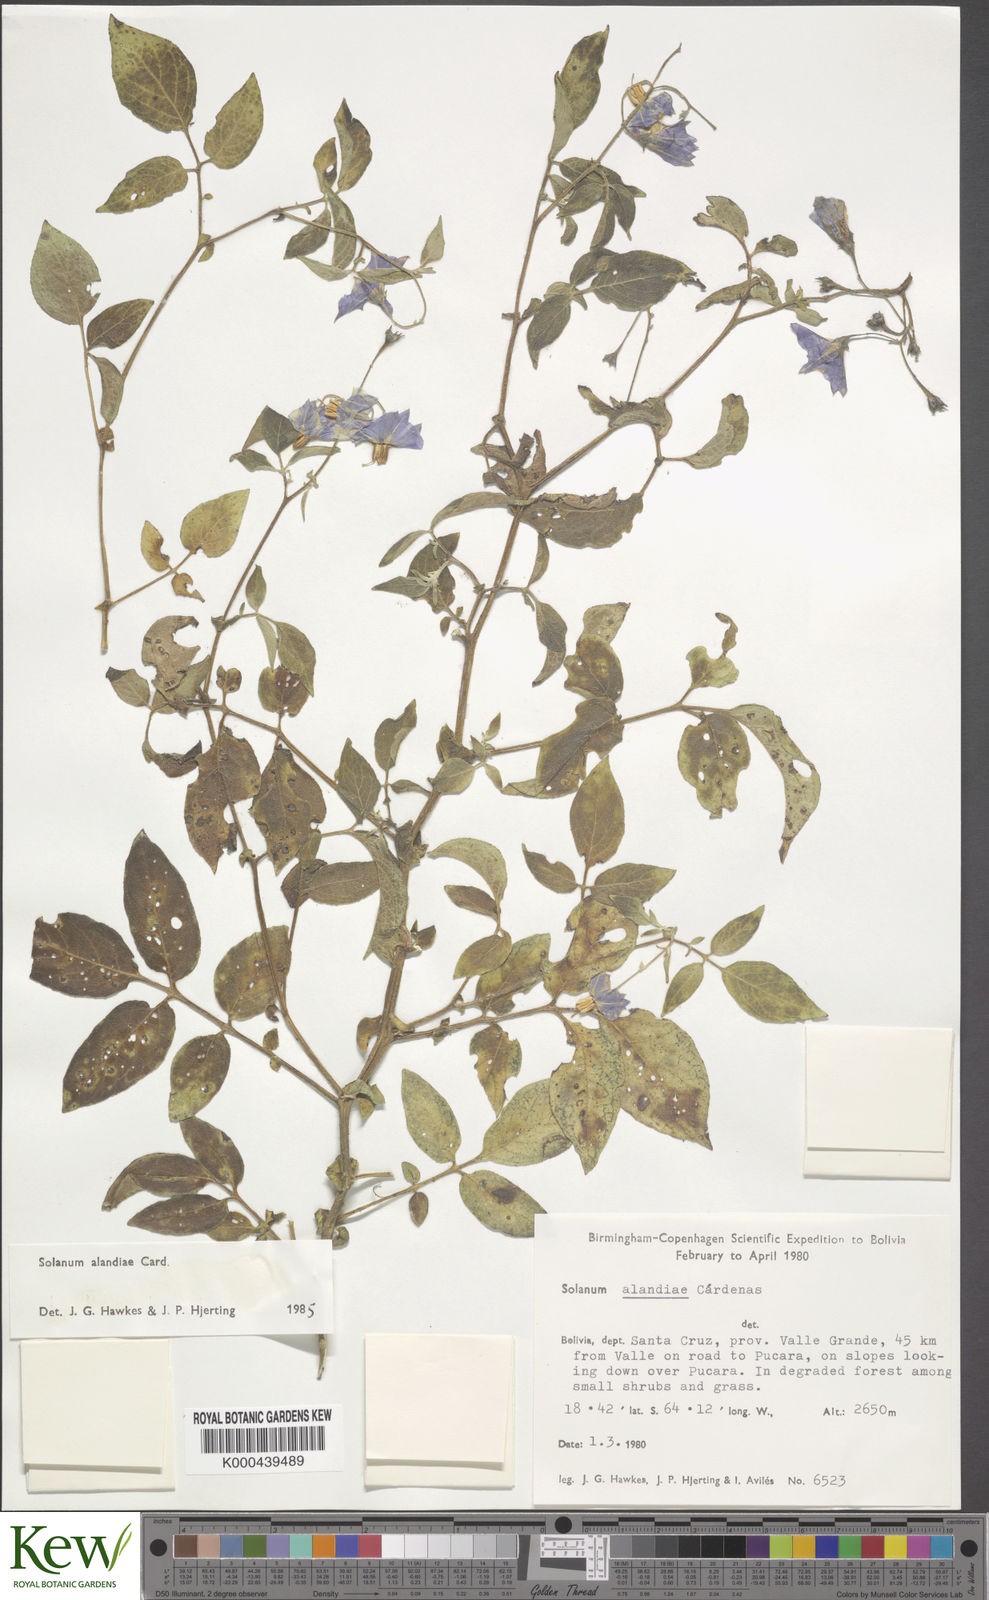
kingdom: Plantae
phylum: Tracheophyta
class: Magnoliopsida
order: Solanales
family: Solanaceae
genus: Solanum
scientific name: Solanum brevicaule
